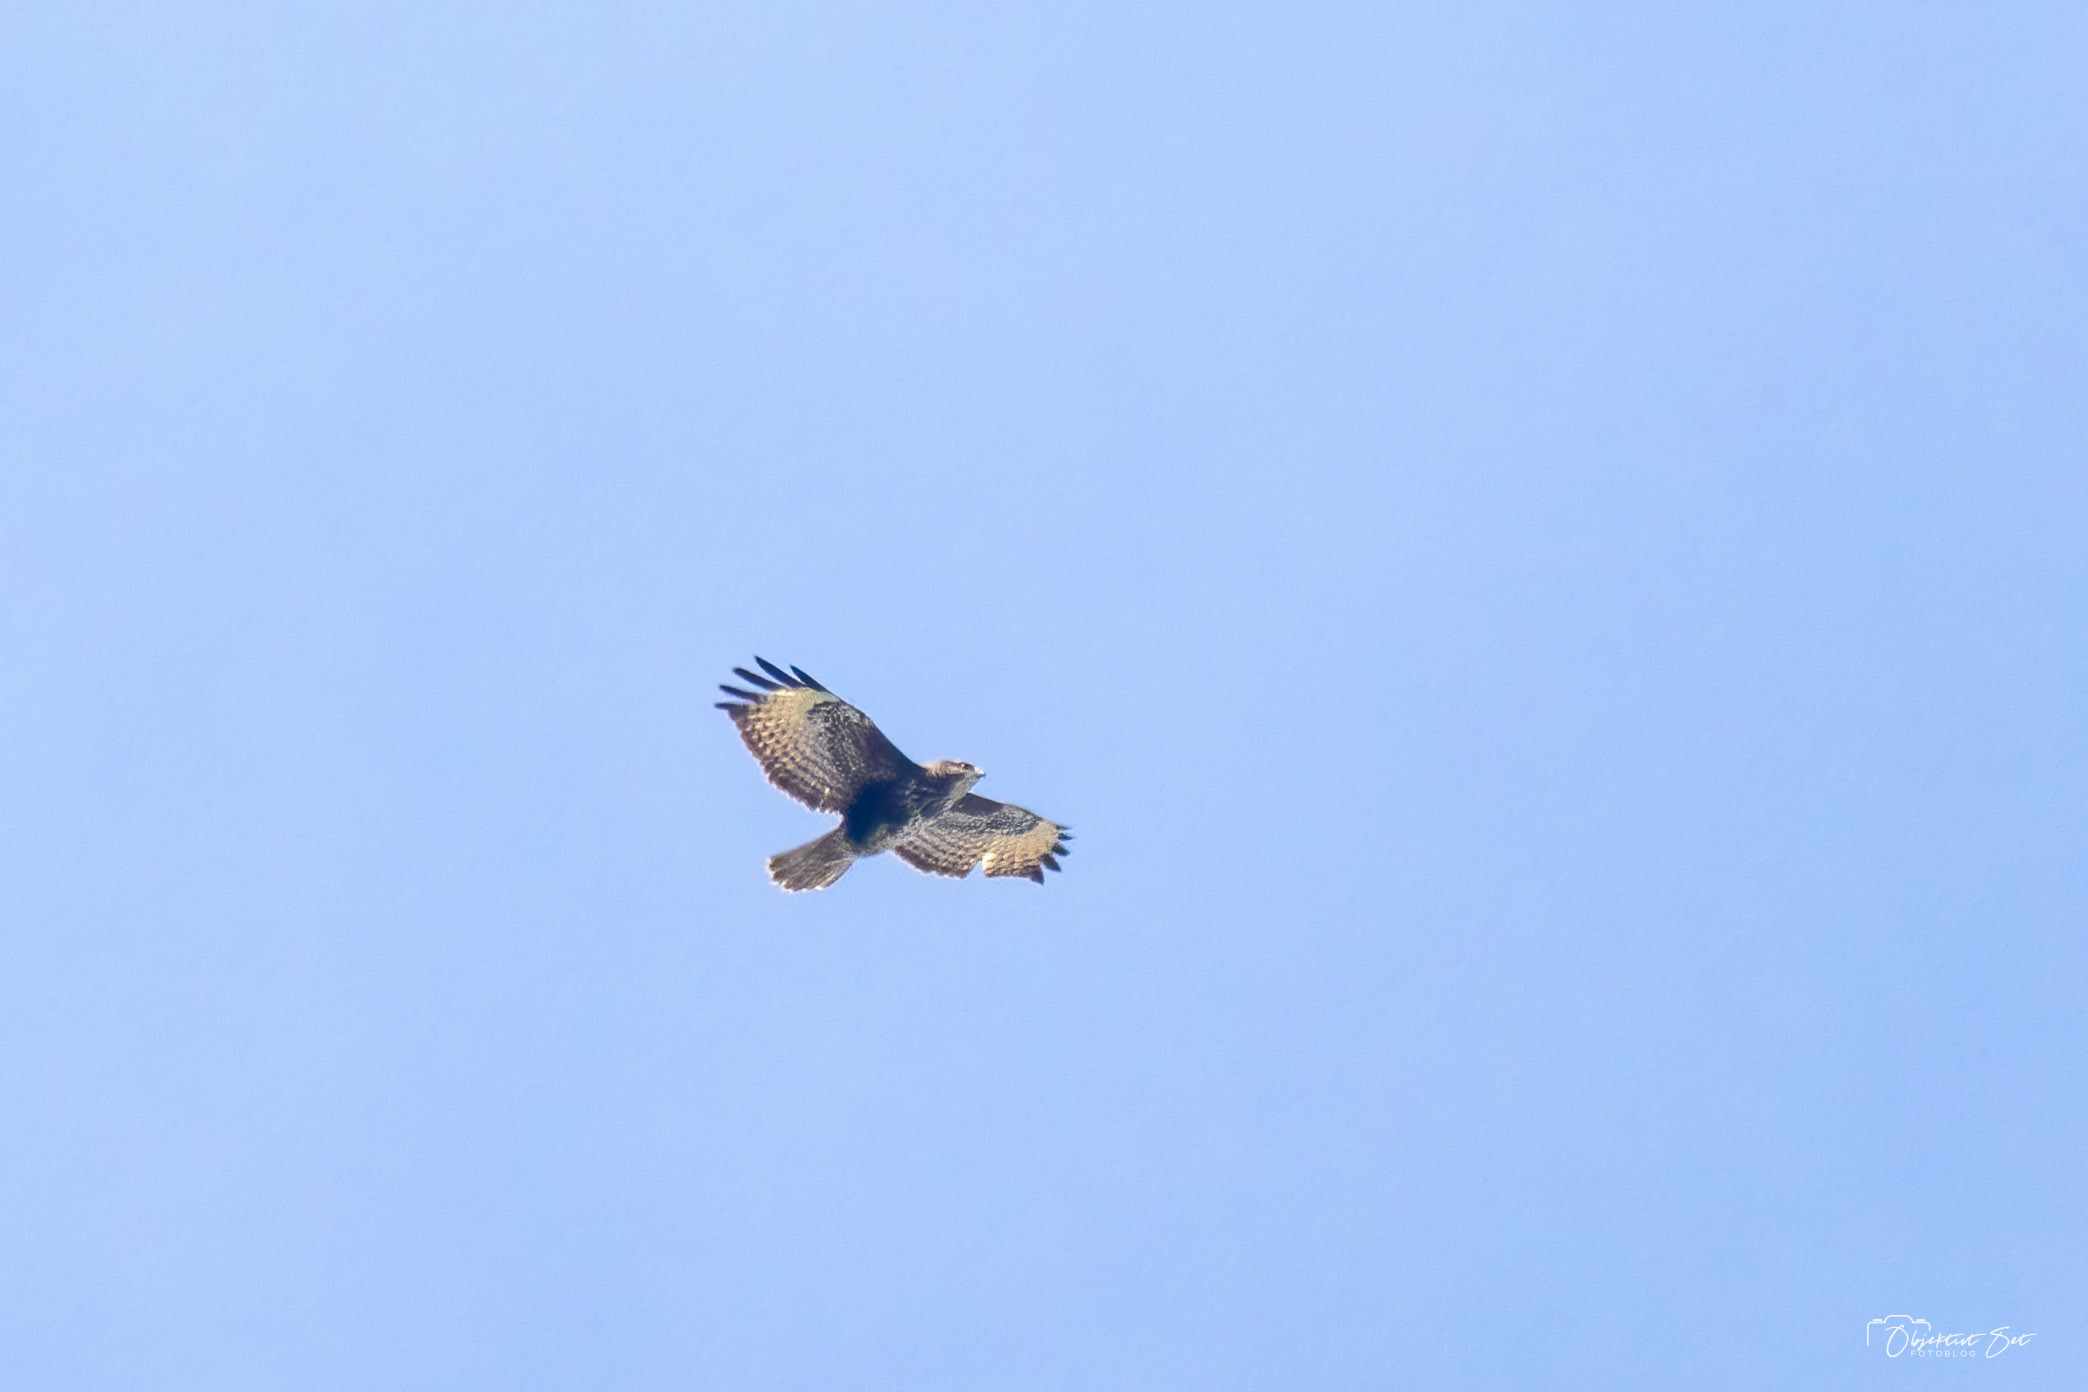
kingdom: Animalia
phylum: Chordata
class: Aves
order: Accipitriformes
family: Accipitridae
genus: Buteo
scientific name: Buteo buteo
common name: Musvåge
